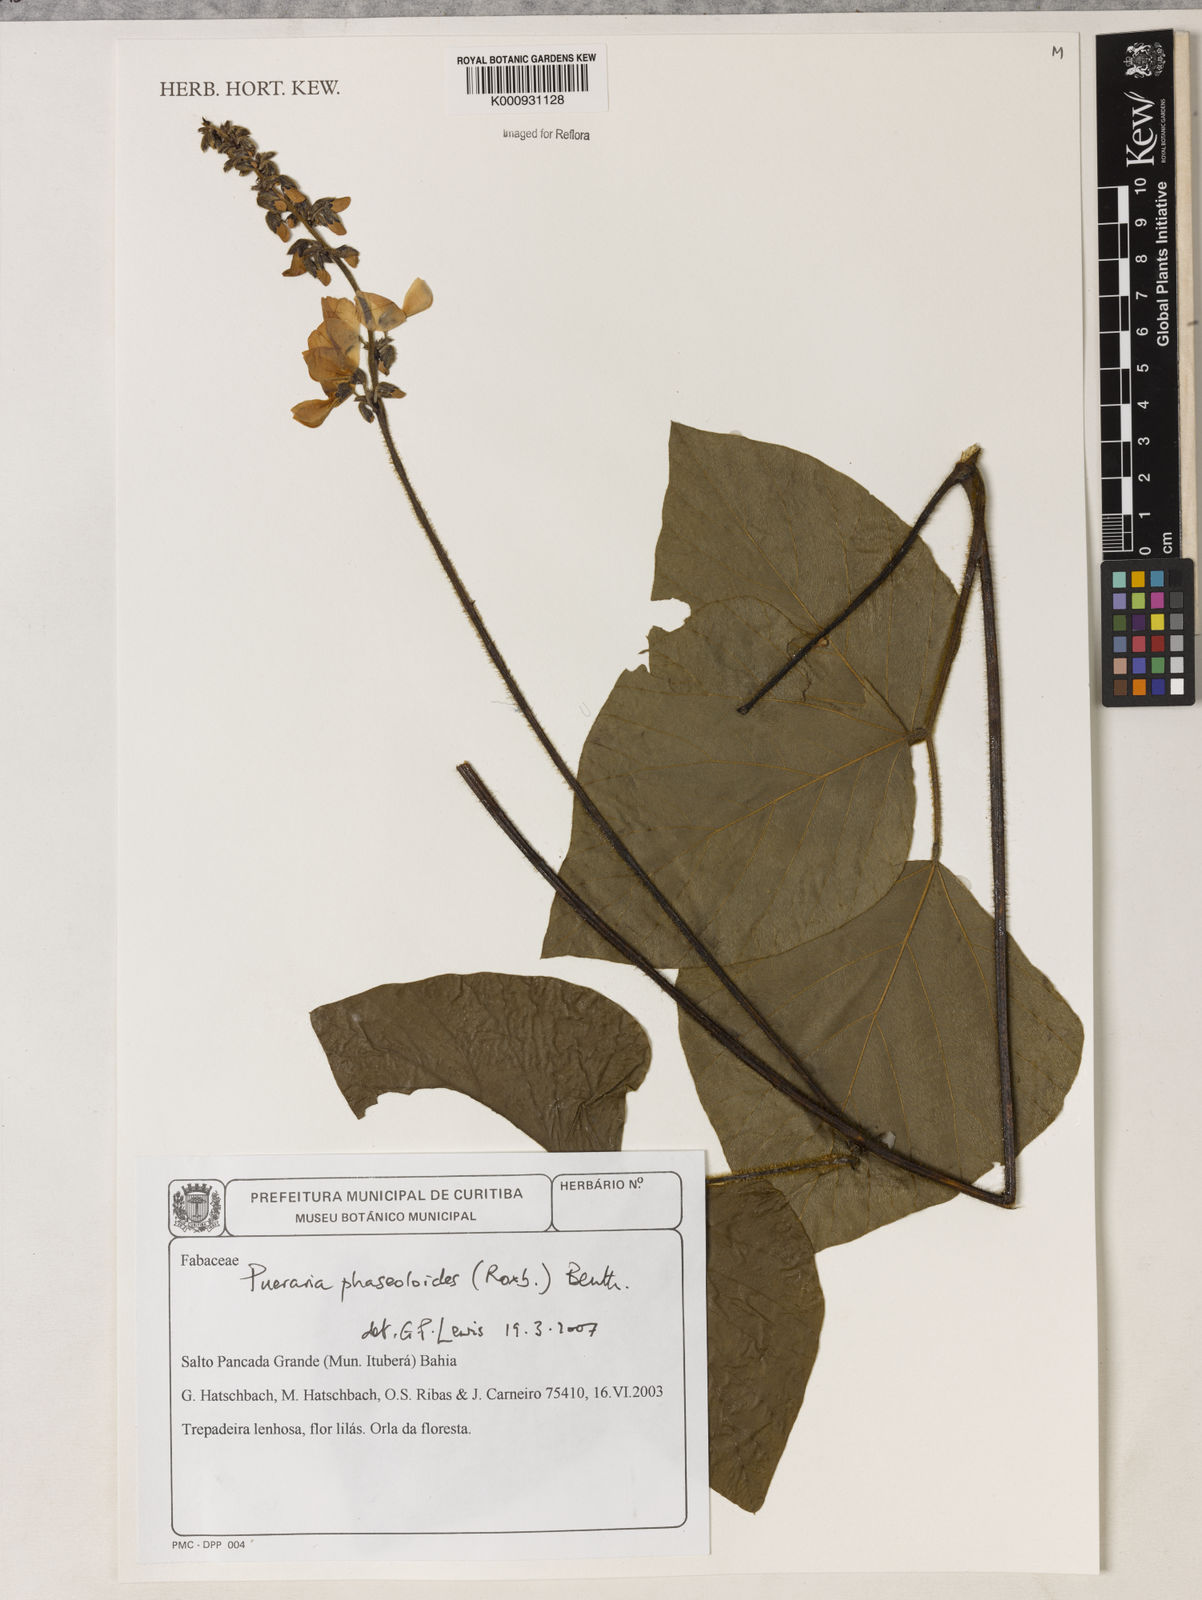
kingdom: Plantae
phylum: Tracheophyta
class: Magnoliopsida
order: Fabales
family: Fabaceae
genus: Neustanthus
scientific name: Neustanthus phaseoloides
